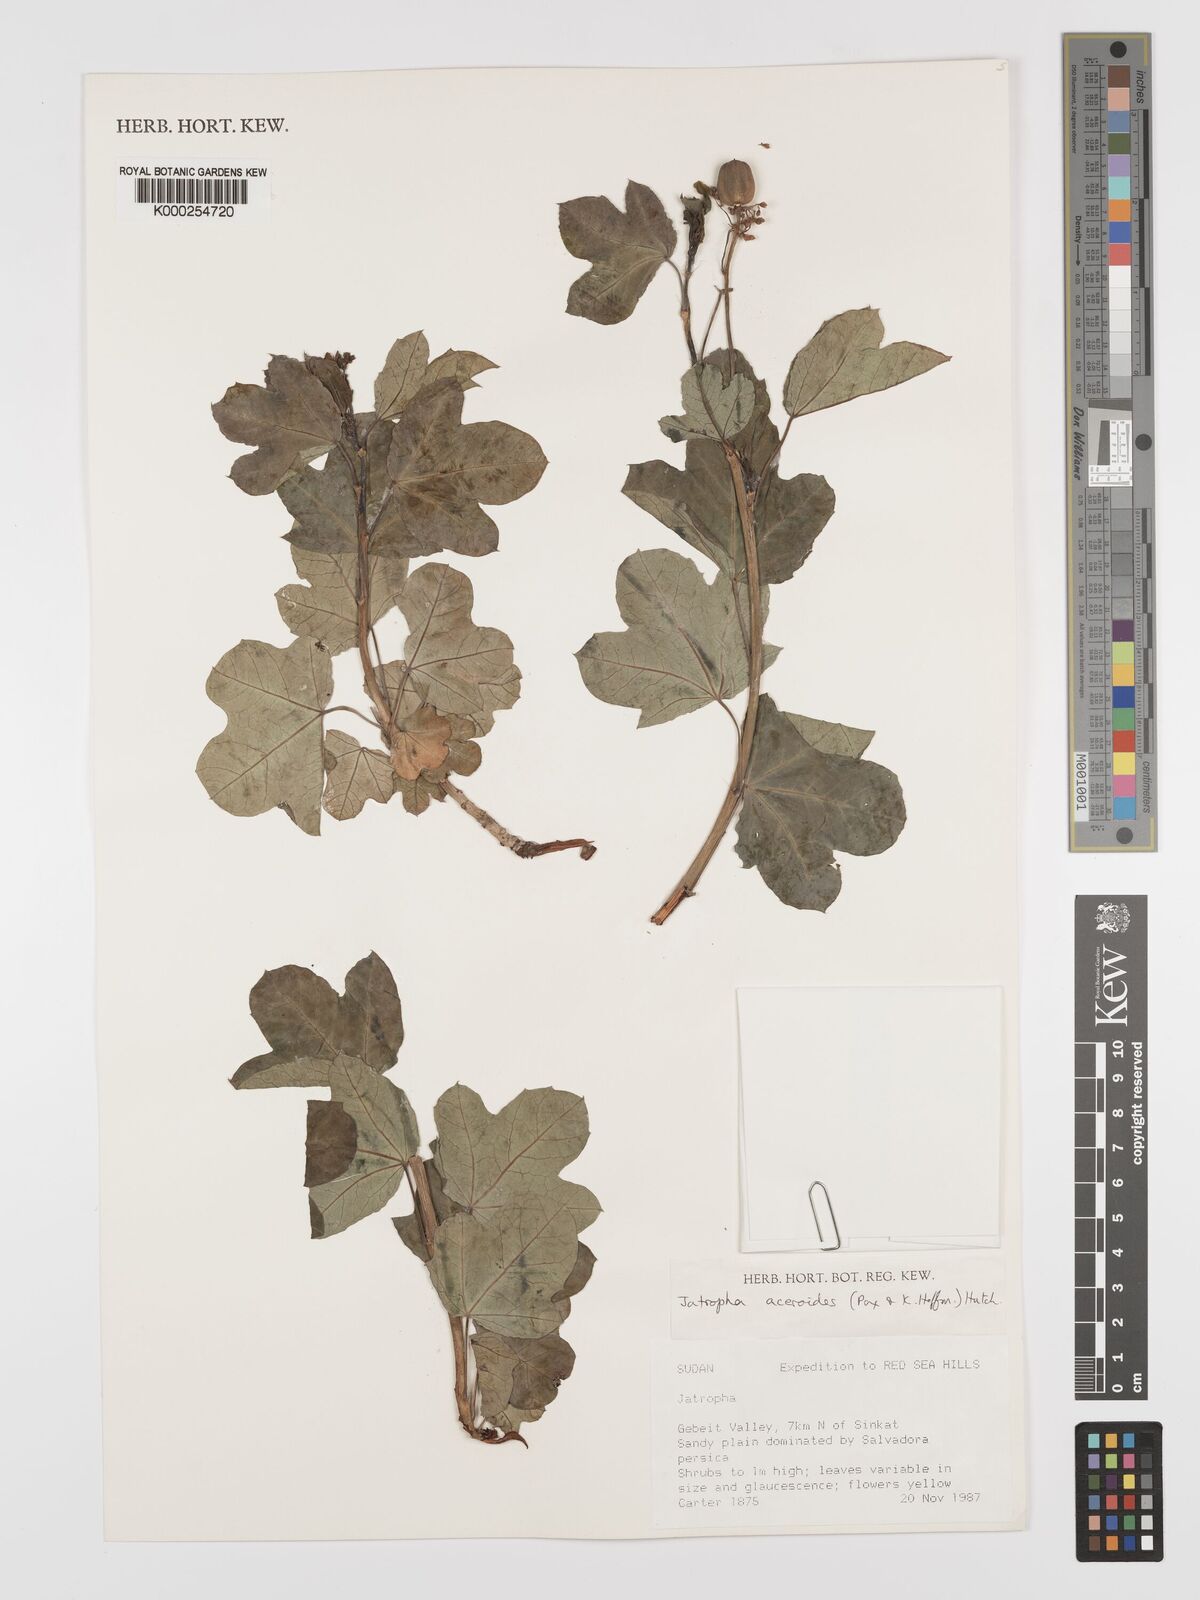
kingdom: Plantae
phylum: Tracheophyta
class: Magnoliopsida
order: Malpighiales
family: Euphorbiaceae
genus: Jatropha
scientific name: Jatropha aceroides
